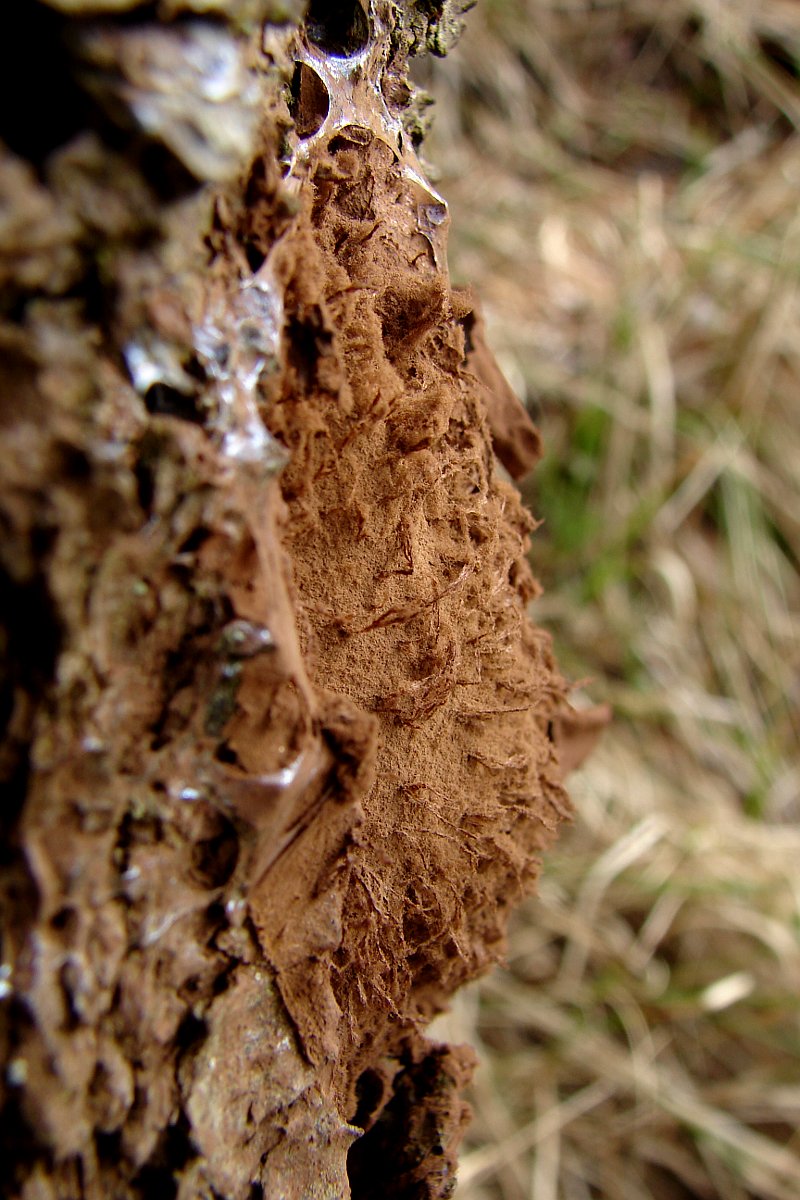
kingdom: Protozoa
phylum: Mycetozoa
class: Myxomycetes
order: Cribrariales
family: Tubiferaceae
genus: Reticularia
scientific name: Reticularia lycoperdon
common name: skinnende støvpude
